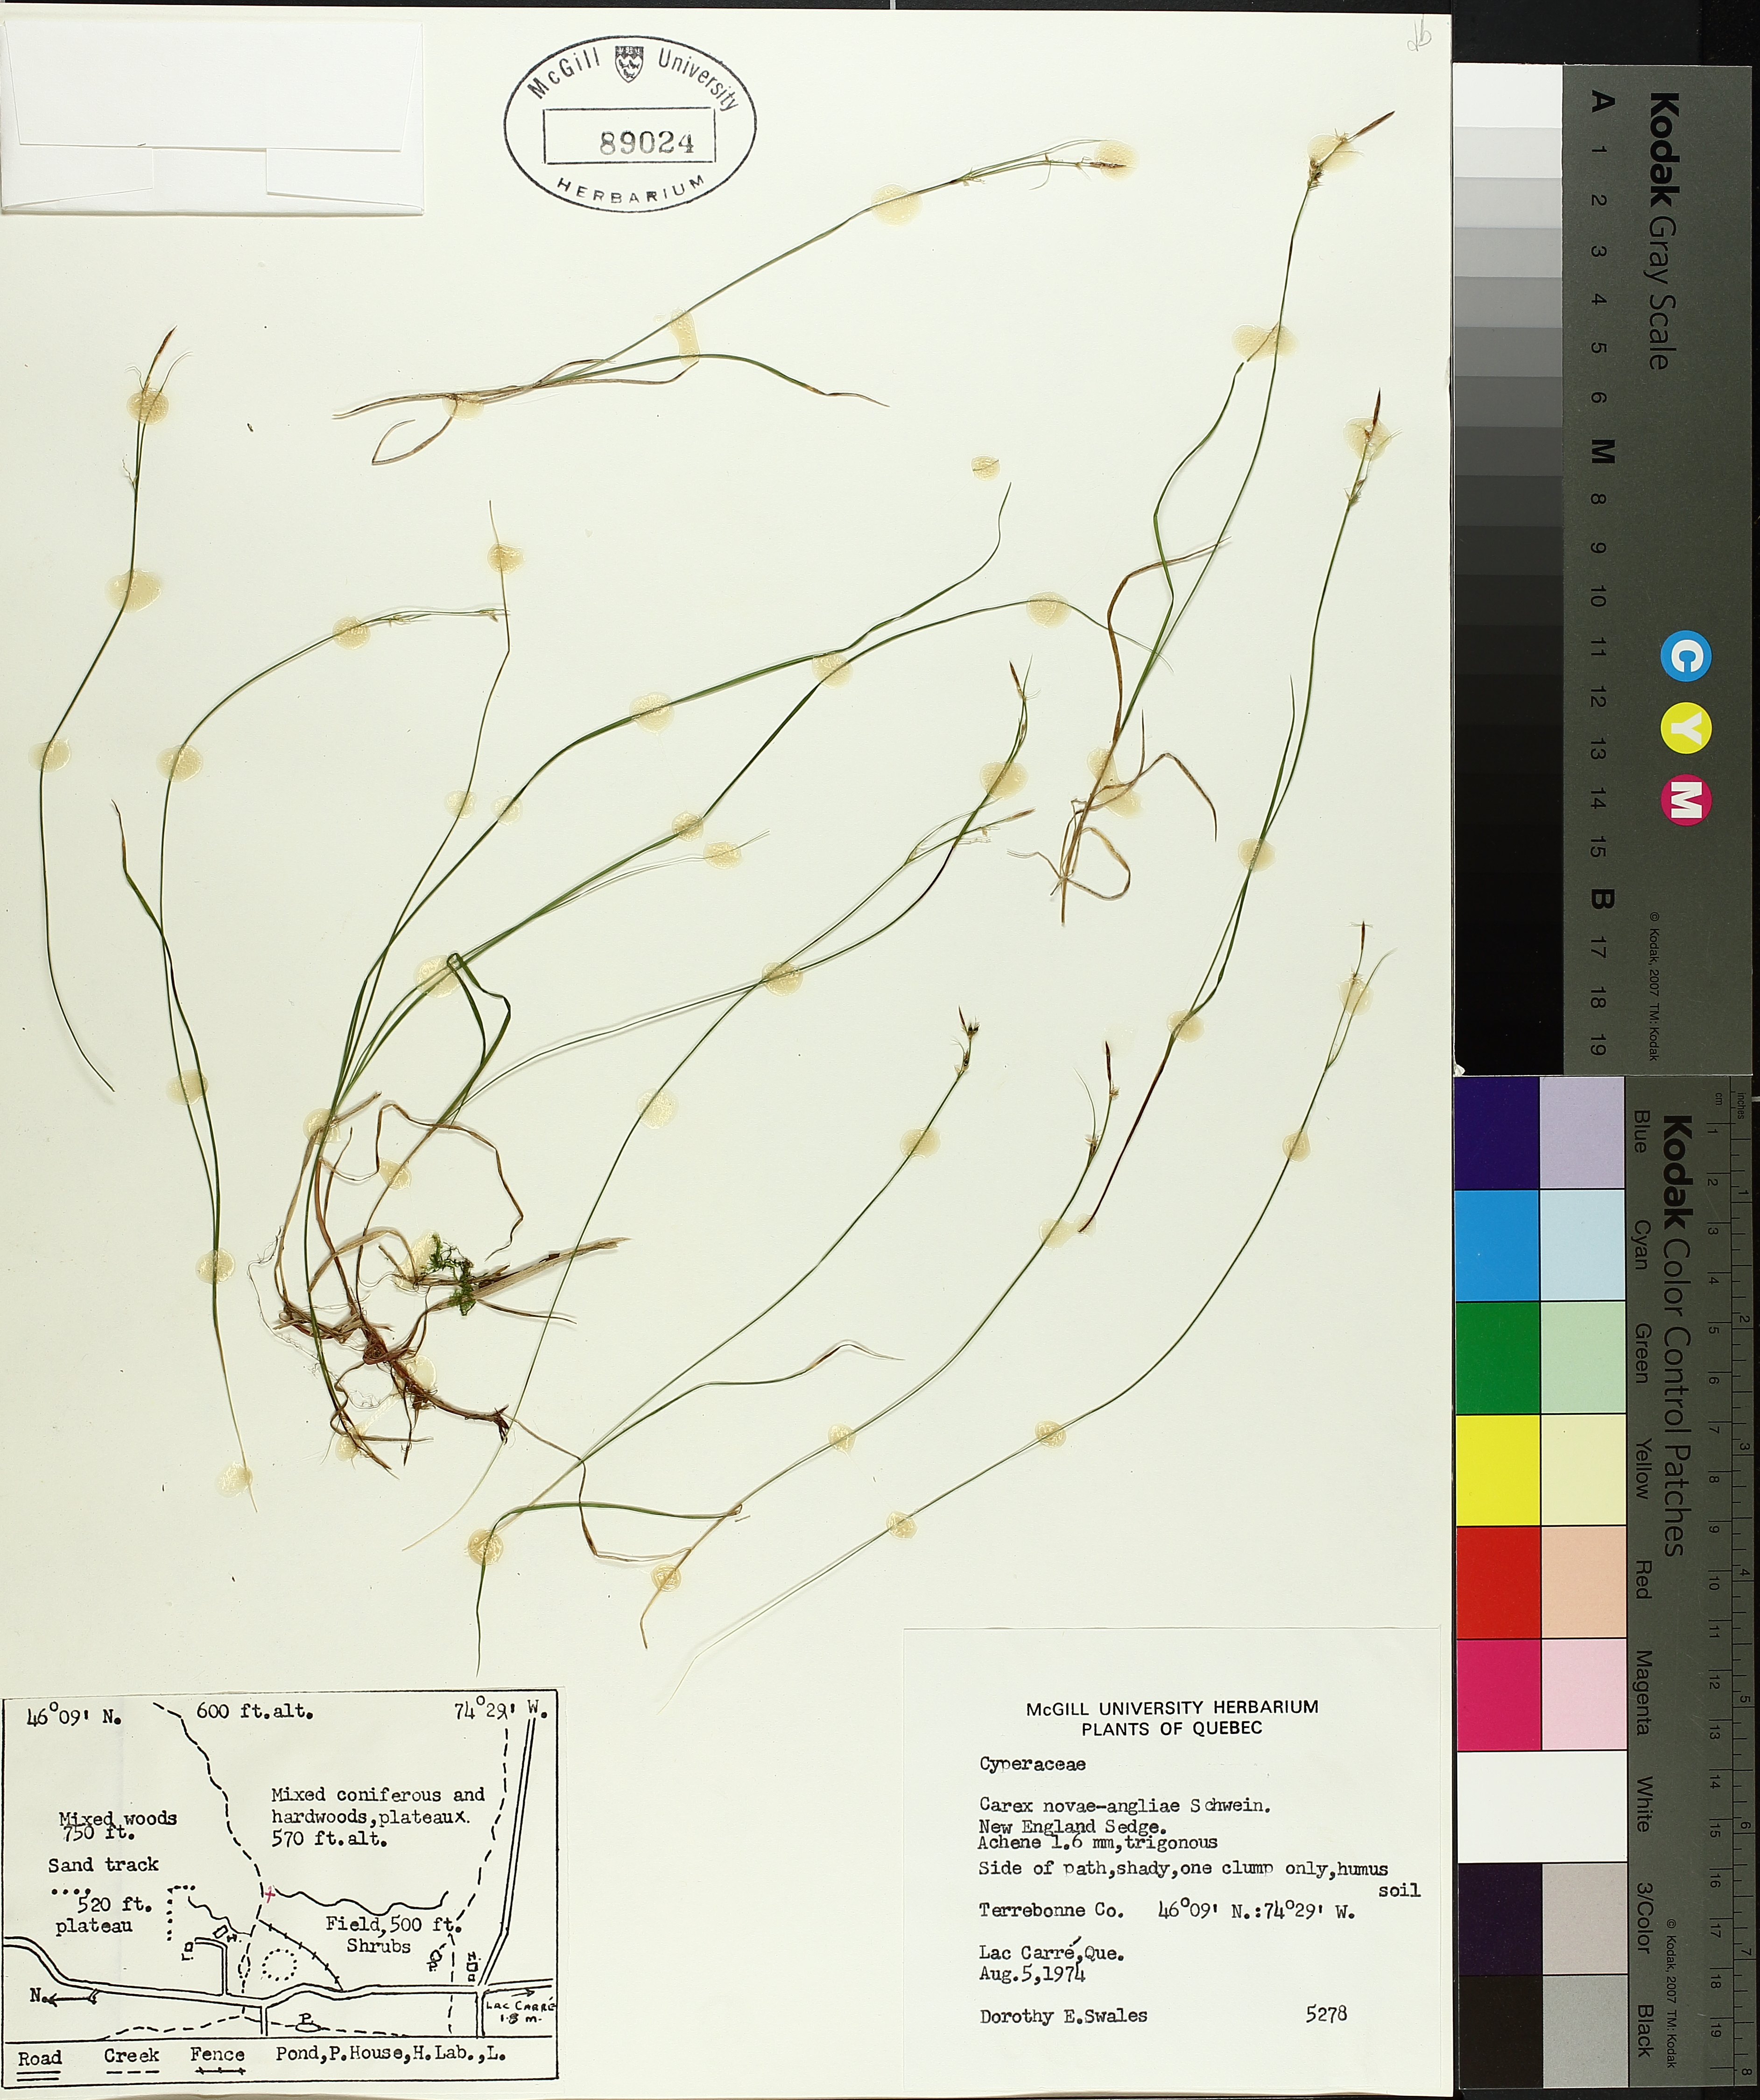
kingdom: Plantae
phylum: Tracheophyta
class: Liliopsida
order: Poales
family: Cyperaceae
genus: Carex
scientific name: Carex novae-angliae
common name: New england sedge
